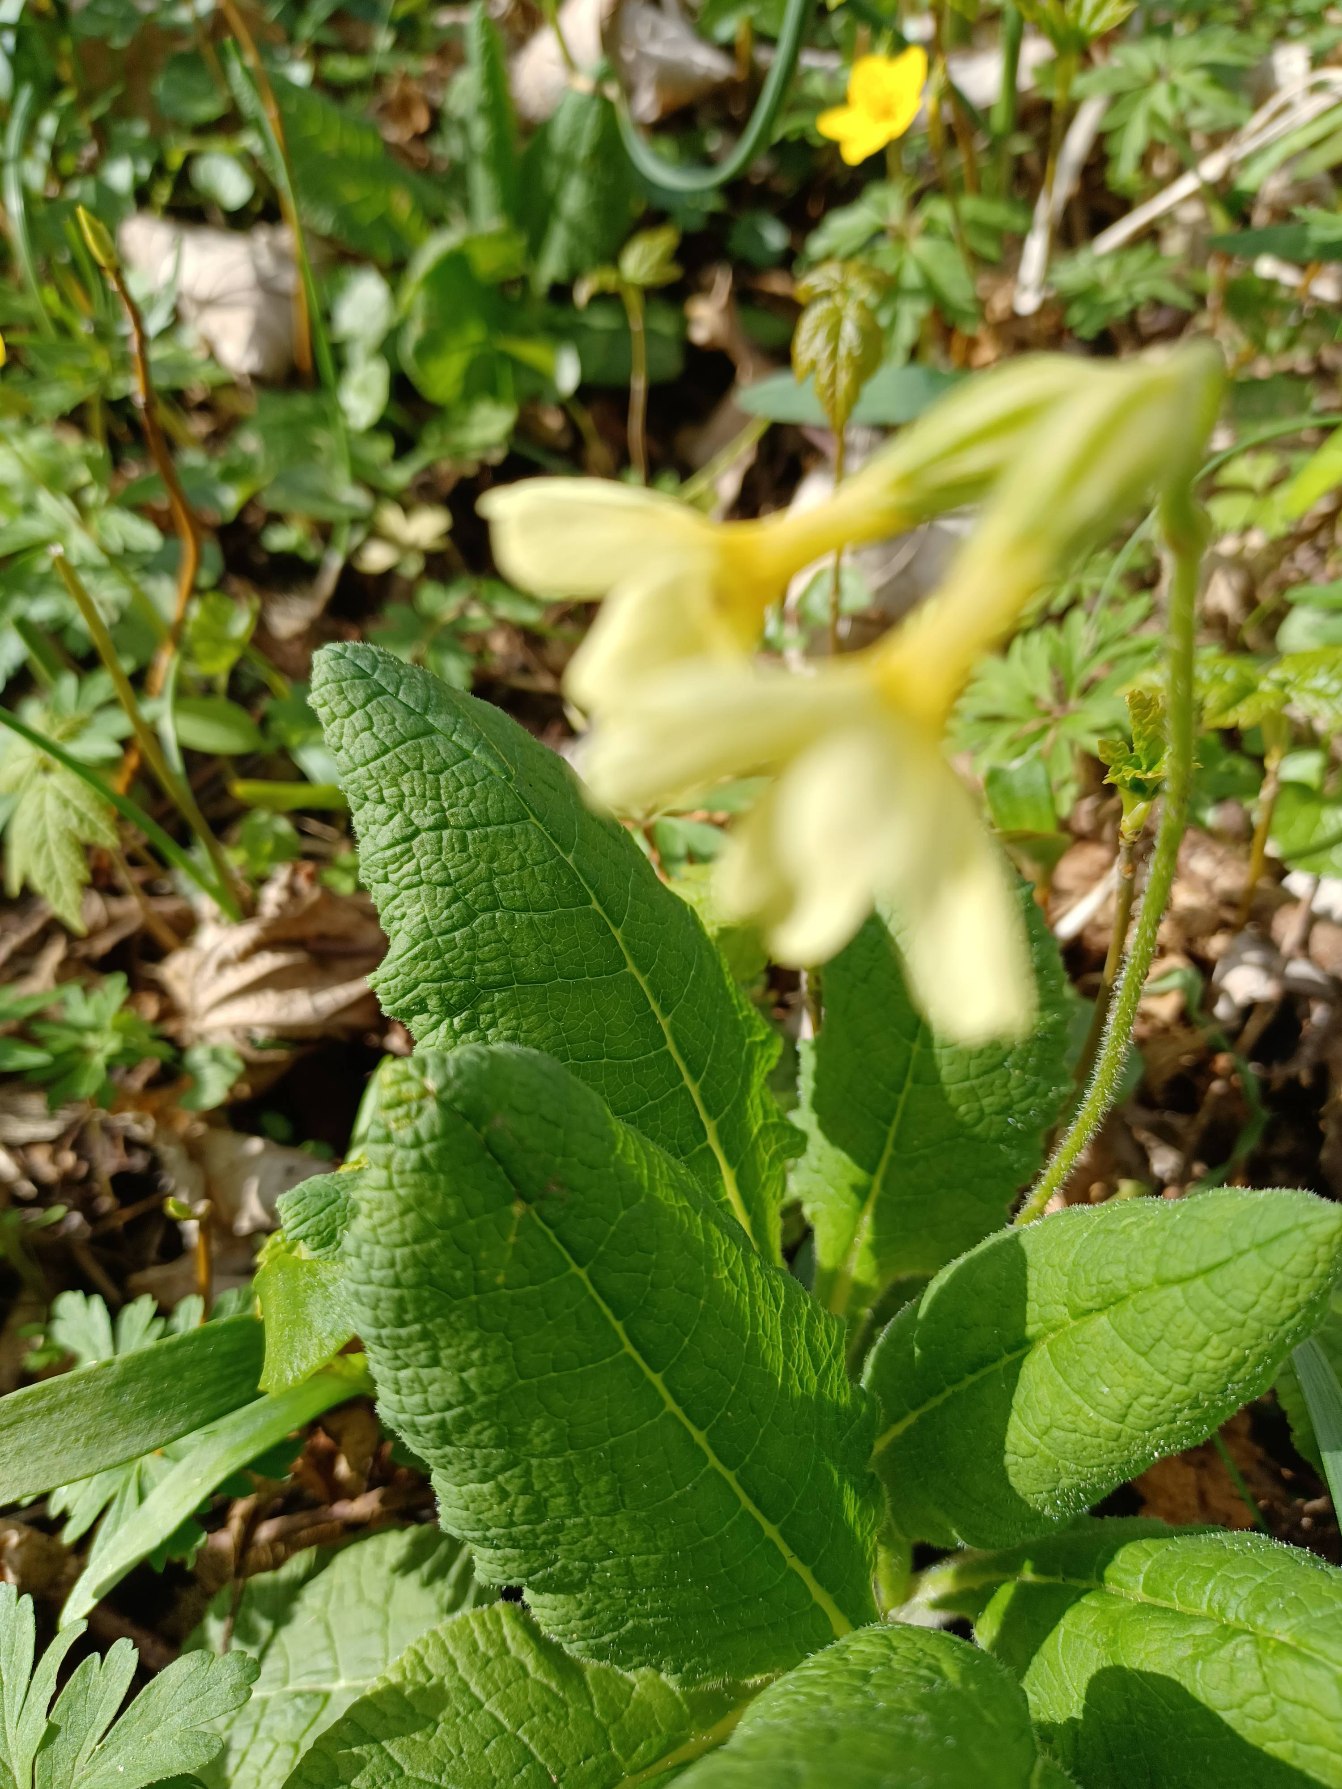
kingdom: Plantae
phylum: Tracheophyta
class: Magnoliopsida
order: Ericales
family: Primulaceae
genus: Primula
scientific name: Primula elatior
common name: Fladkravet kodriver
